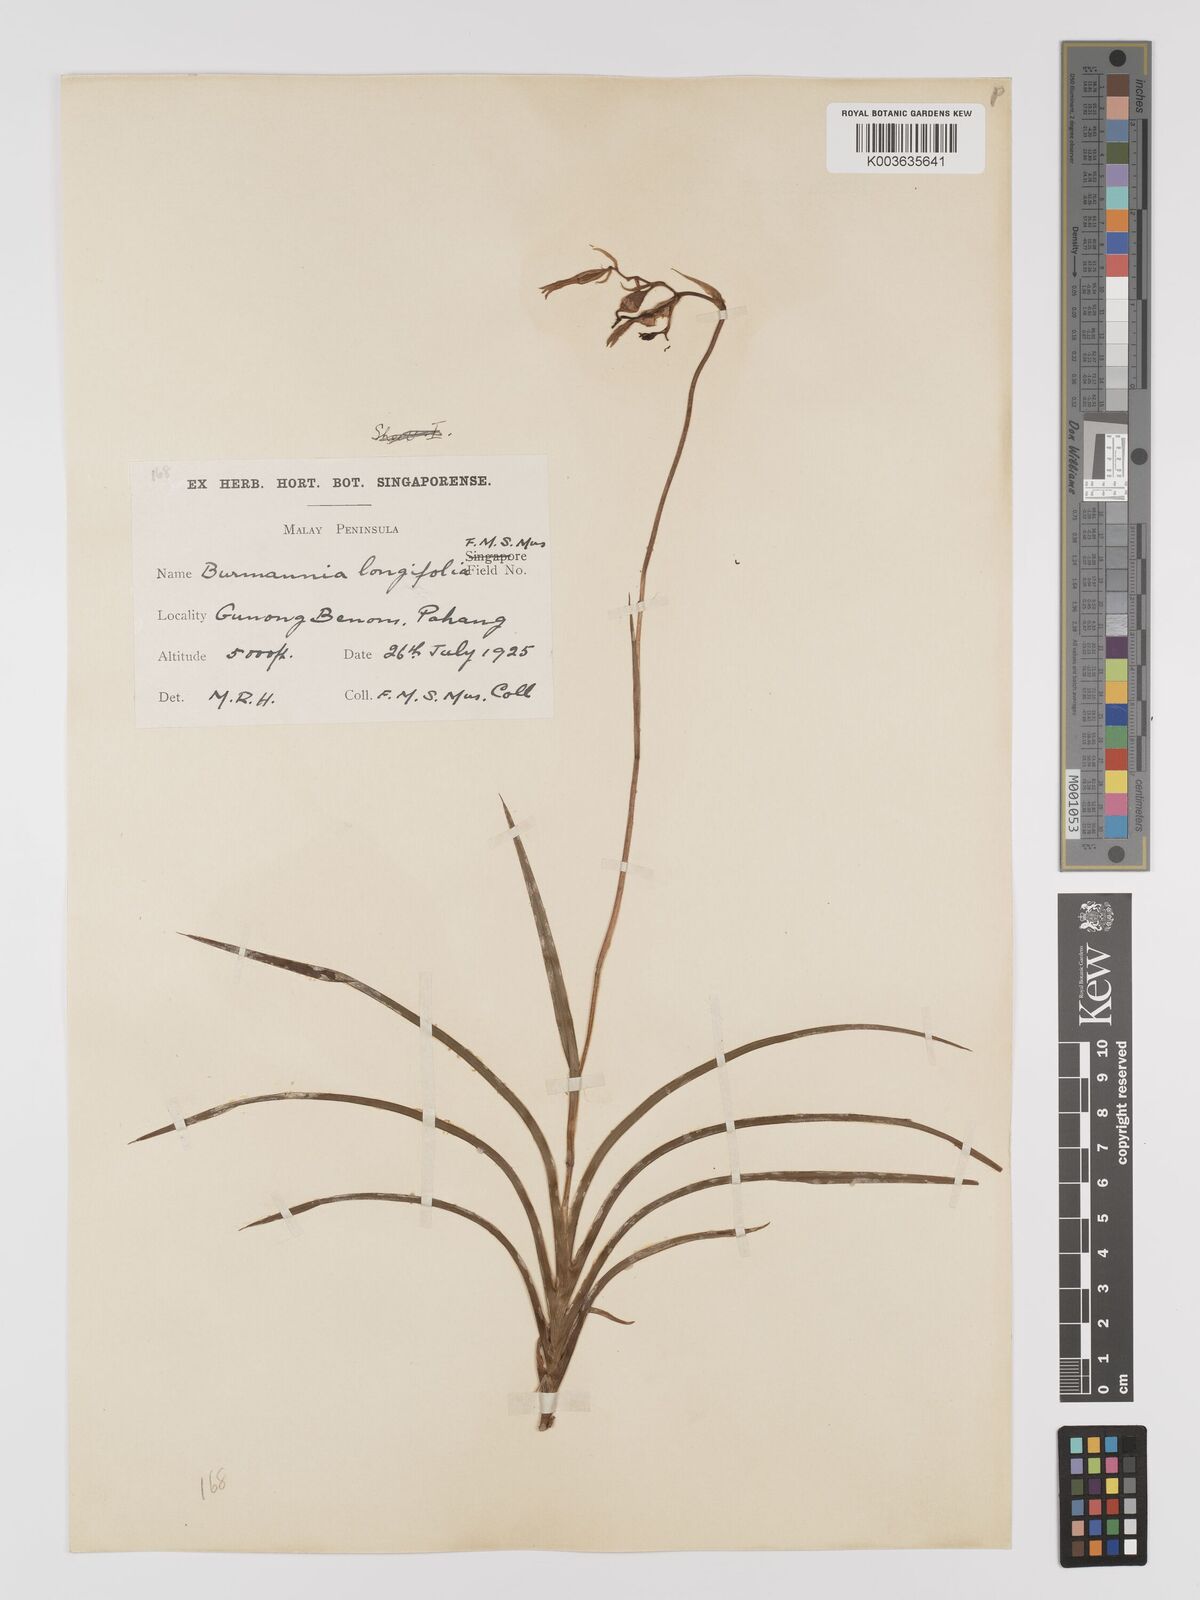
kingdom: Plantae
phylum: Tracheophyta
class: Liliopsida
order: Dioscoreales
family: Burmanniaceae
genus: Burmannia
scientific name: Burmannia longifolia
